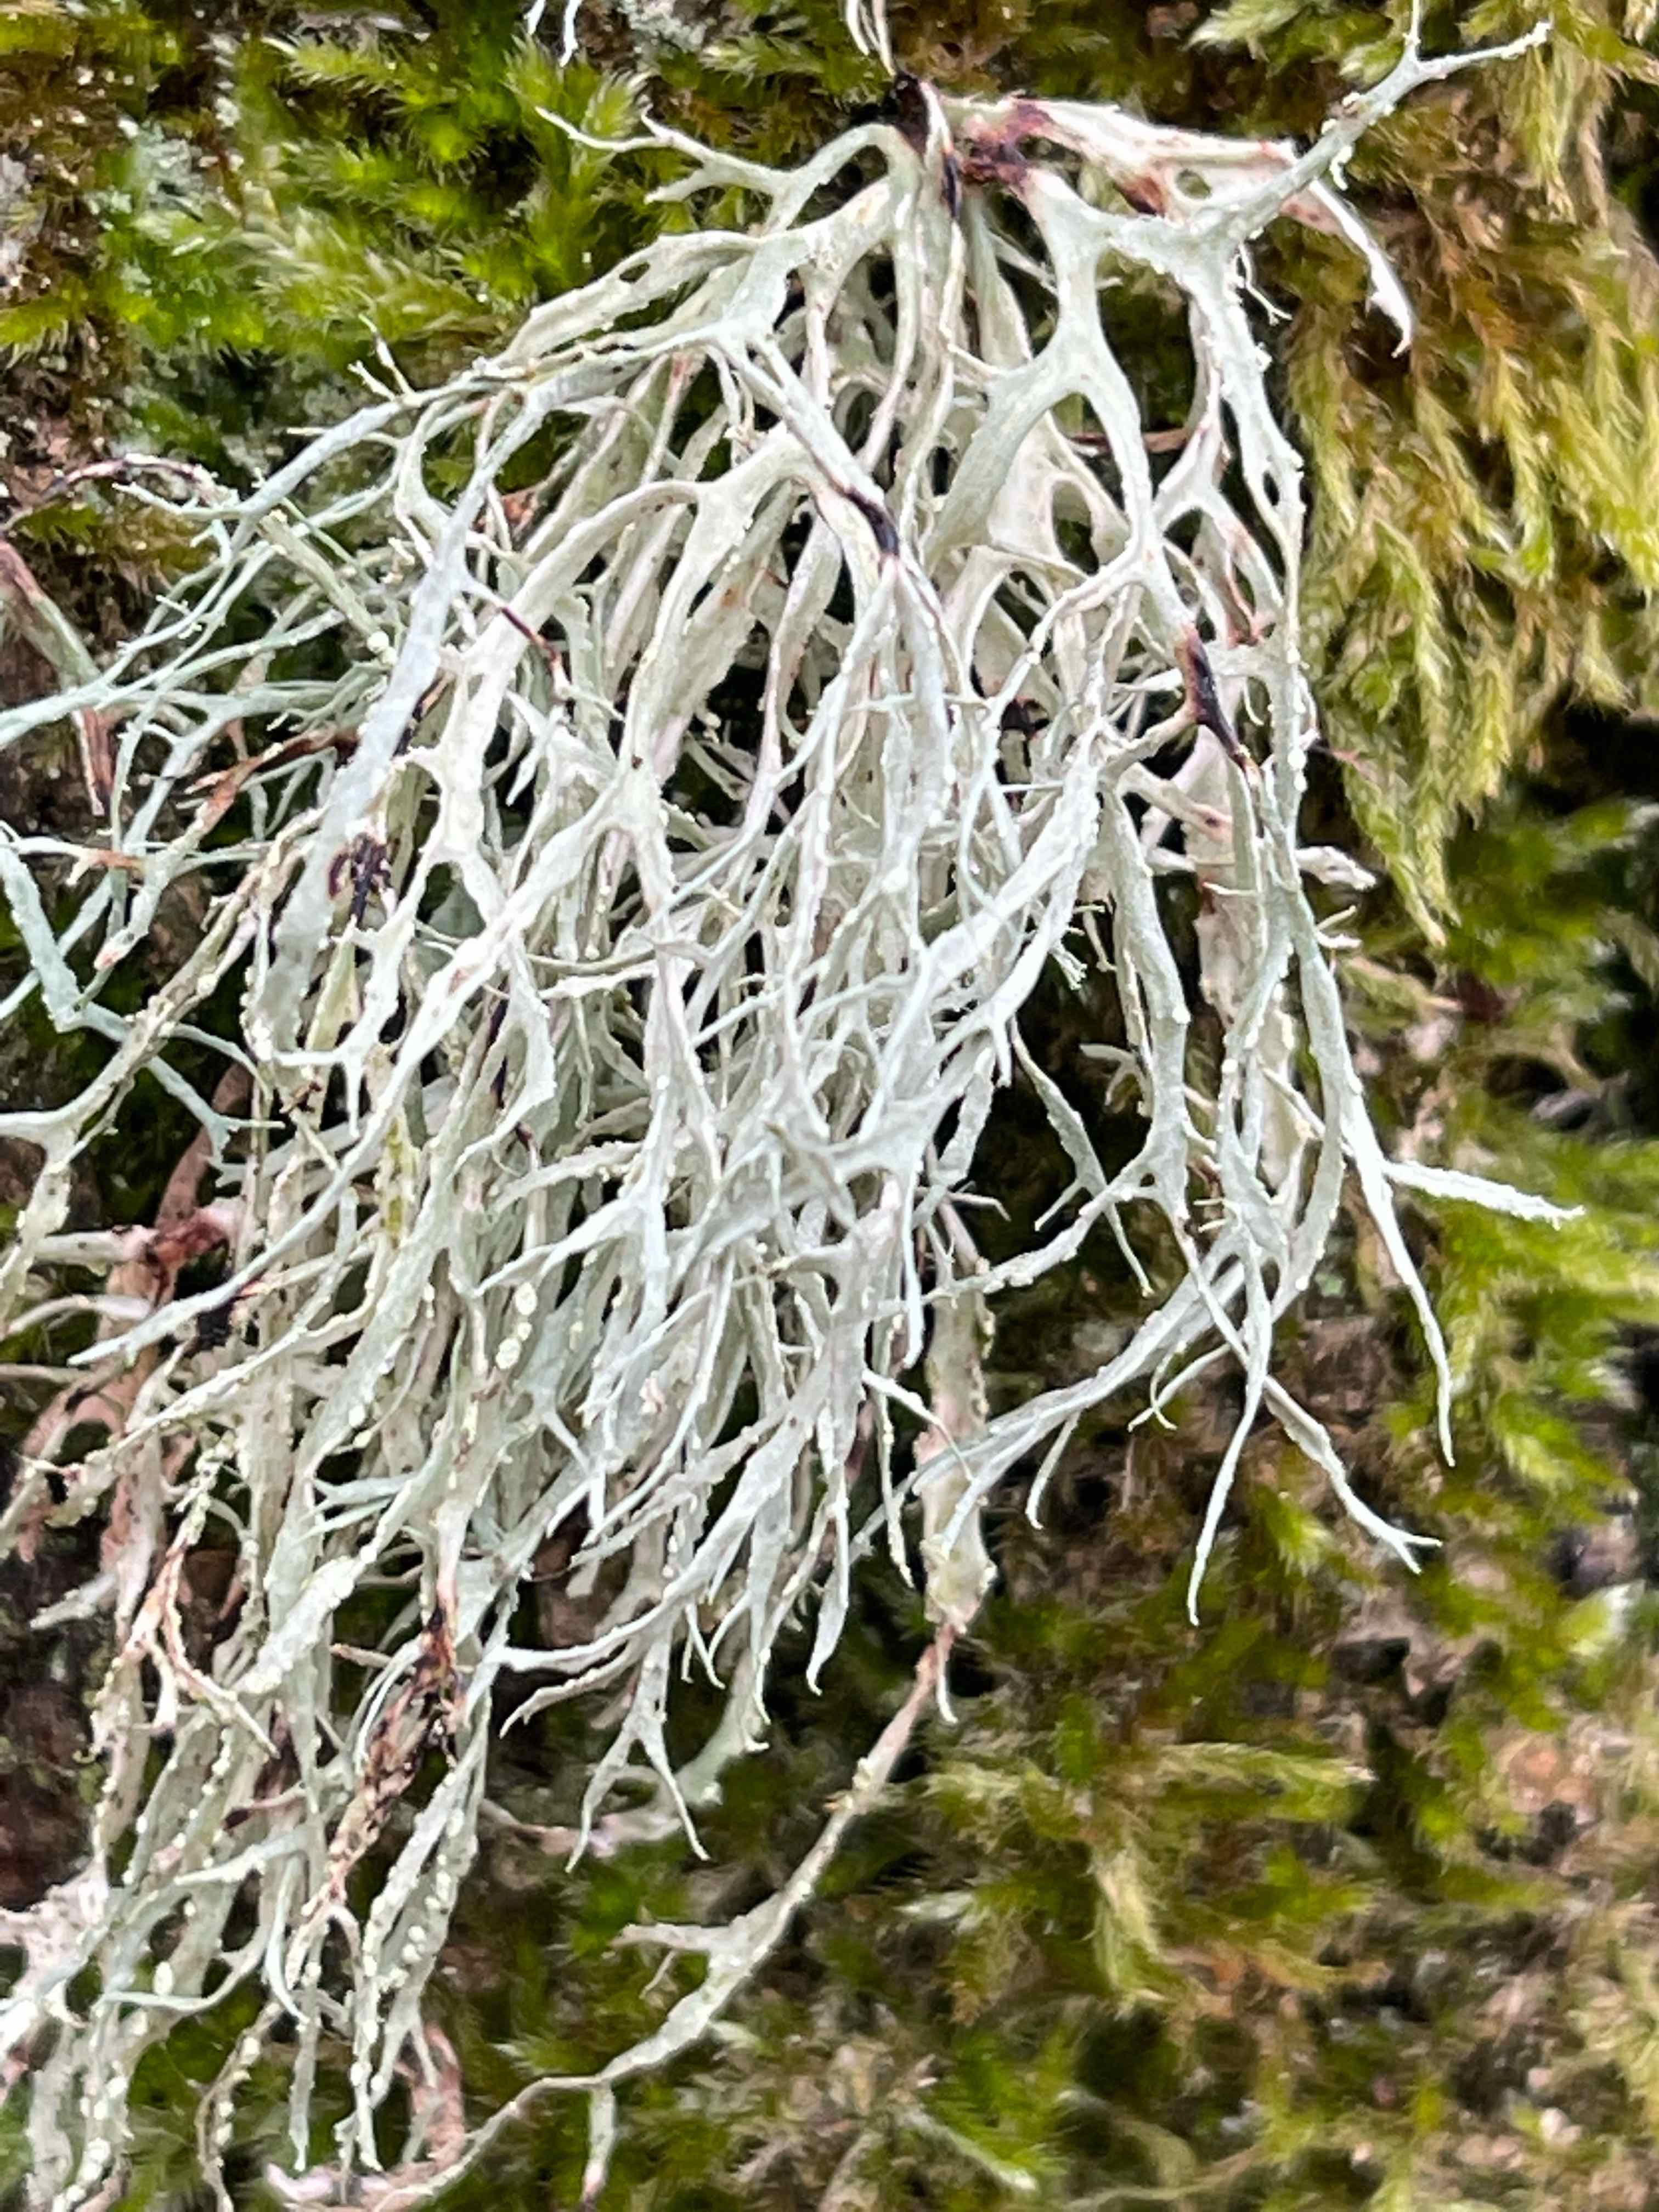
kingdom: Fungi
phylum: Ascomycota
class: Lecanoromycetes
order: Lecanorales
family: Ramalinaceae
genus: Ramalina
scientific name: Ramalina farinacea
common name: melet grenlav
